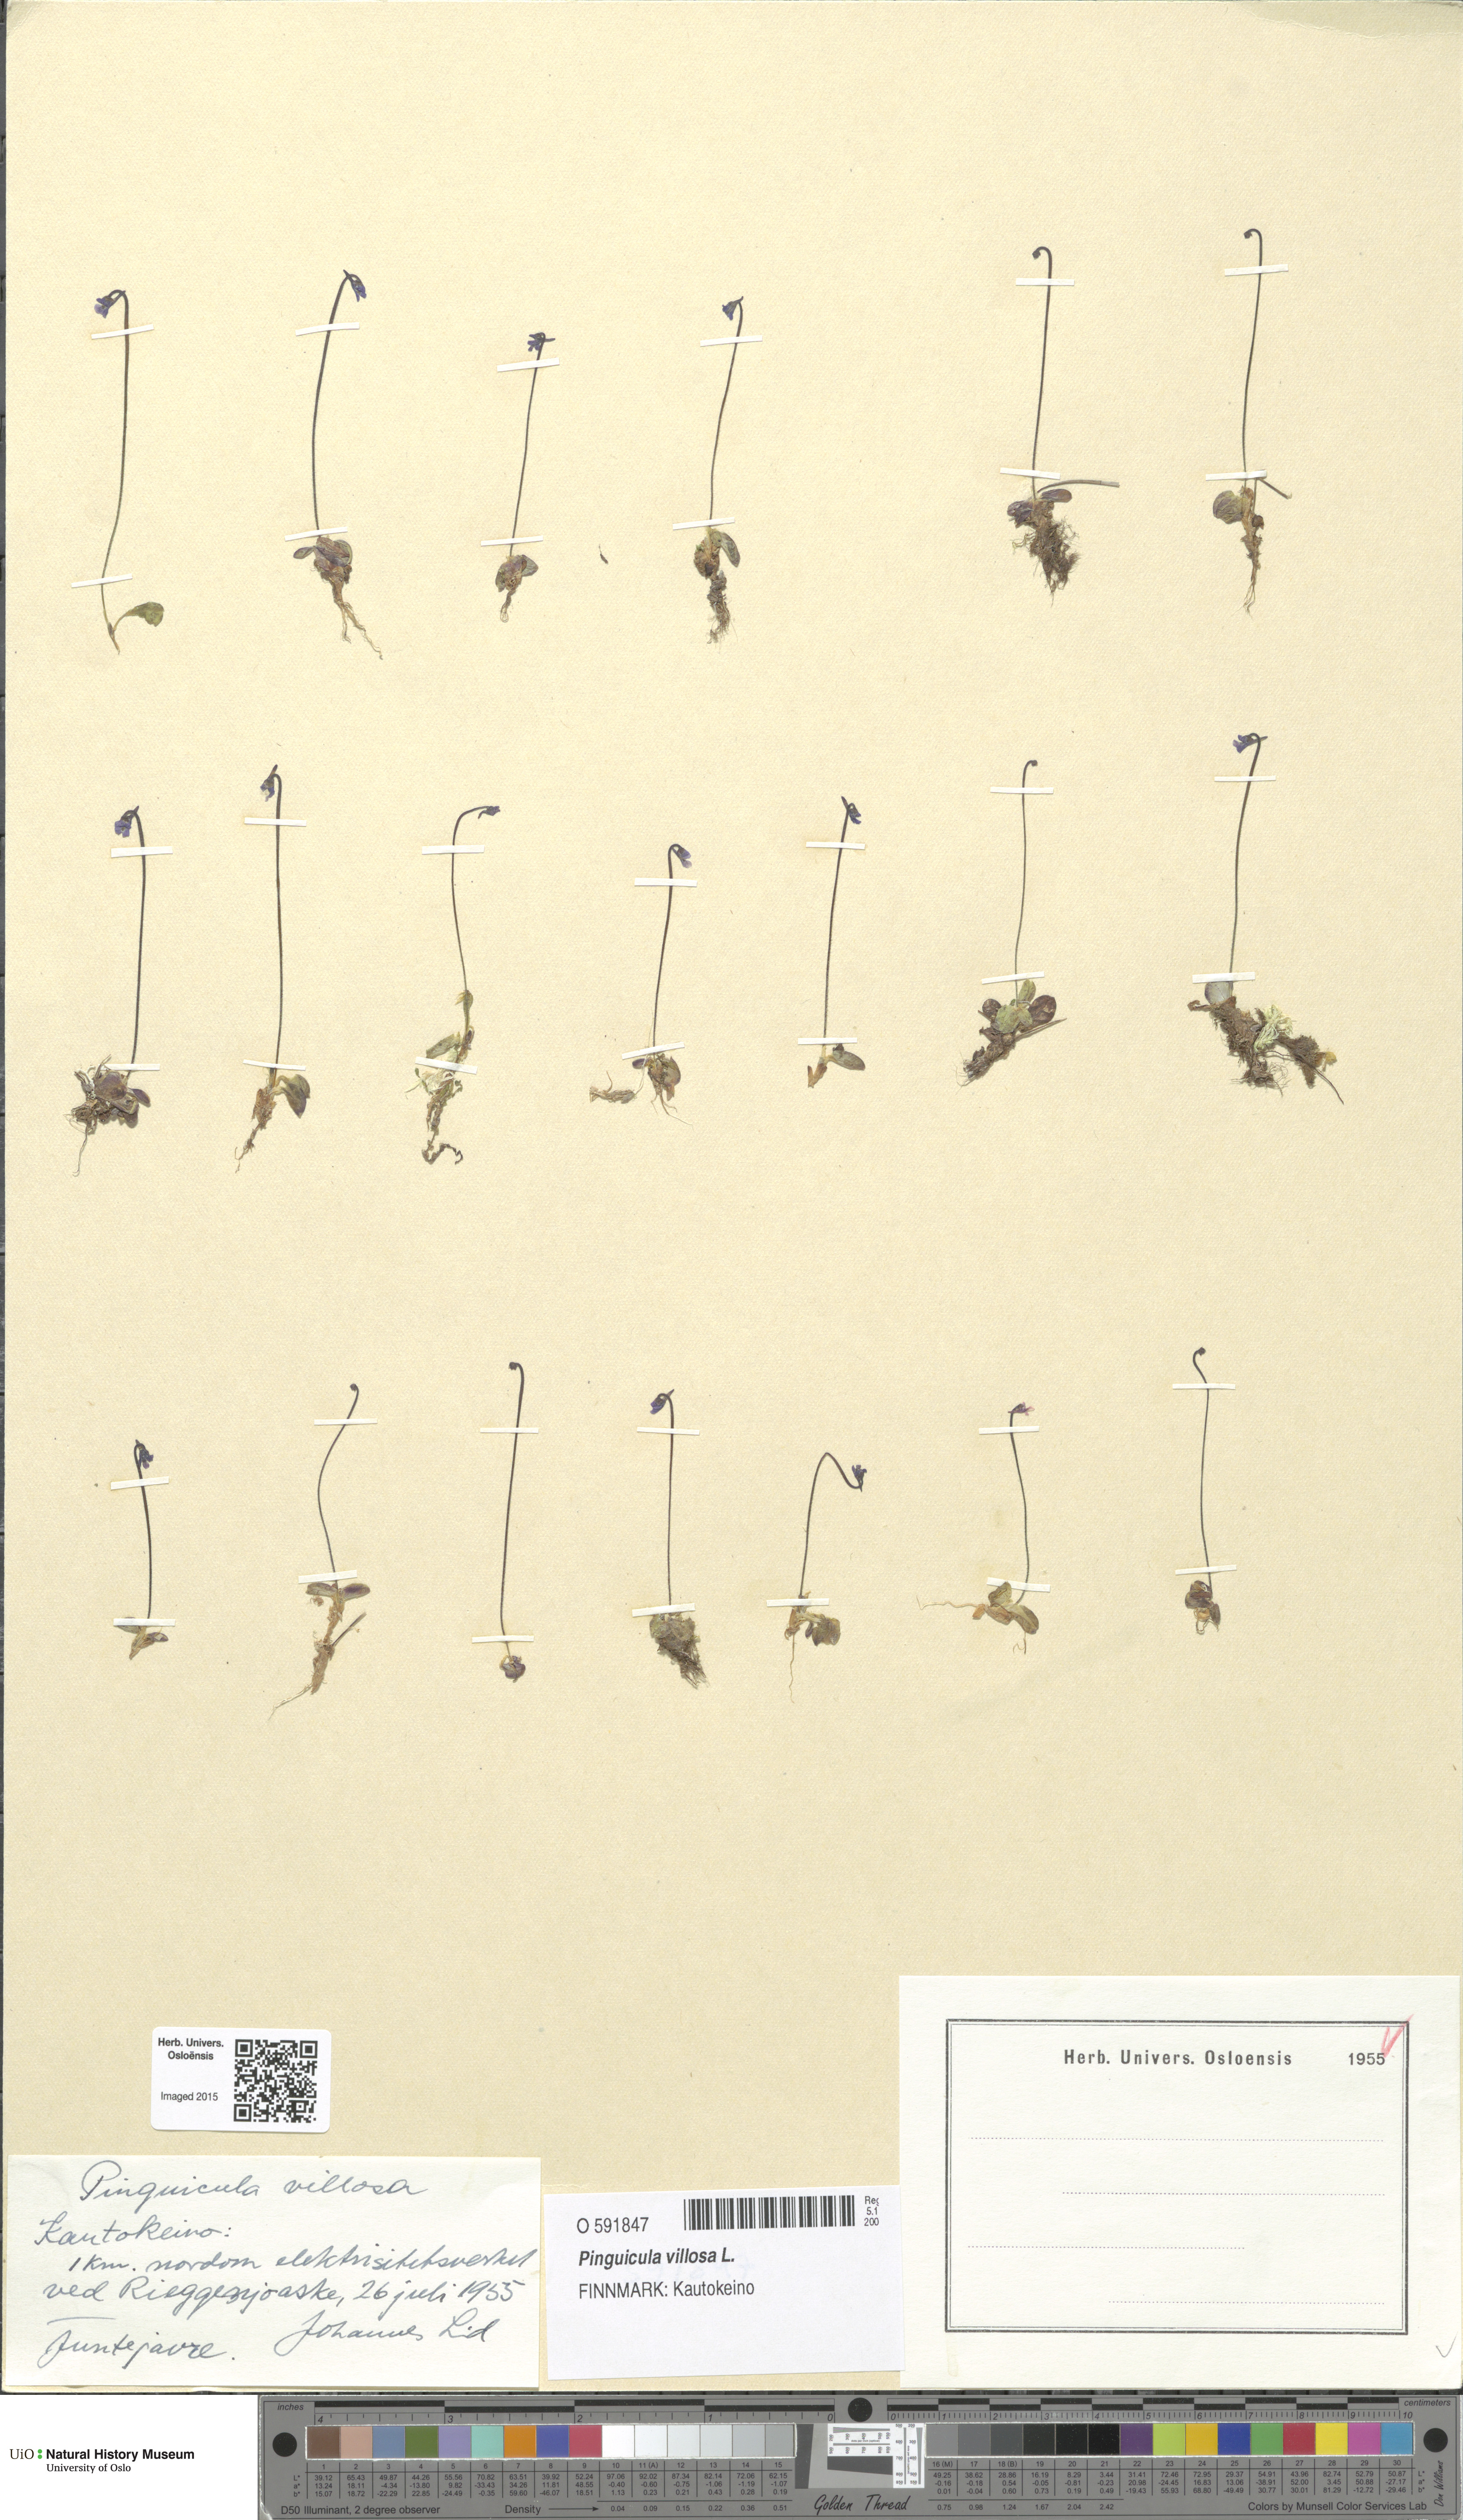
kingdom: Plantae
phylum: Tracheophyta
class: Magnoliopsida
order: Lamiales
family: Lentibulariaceae
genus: Pinguicula
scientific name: Pinguicula villosa
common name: Hairy butterwort
